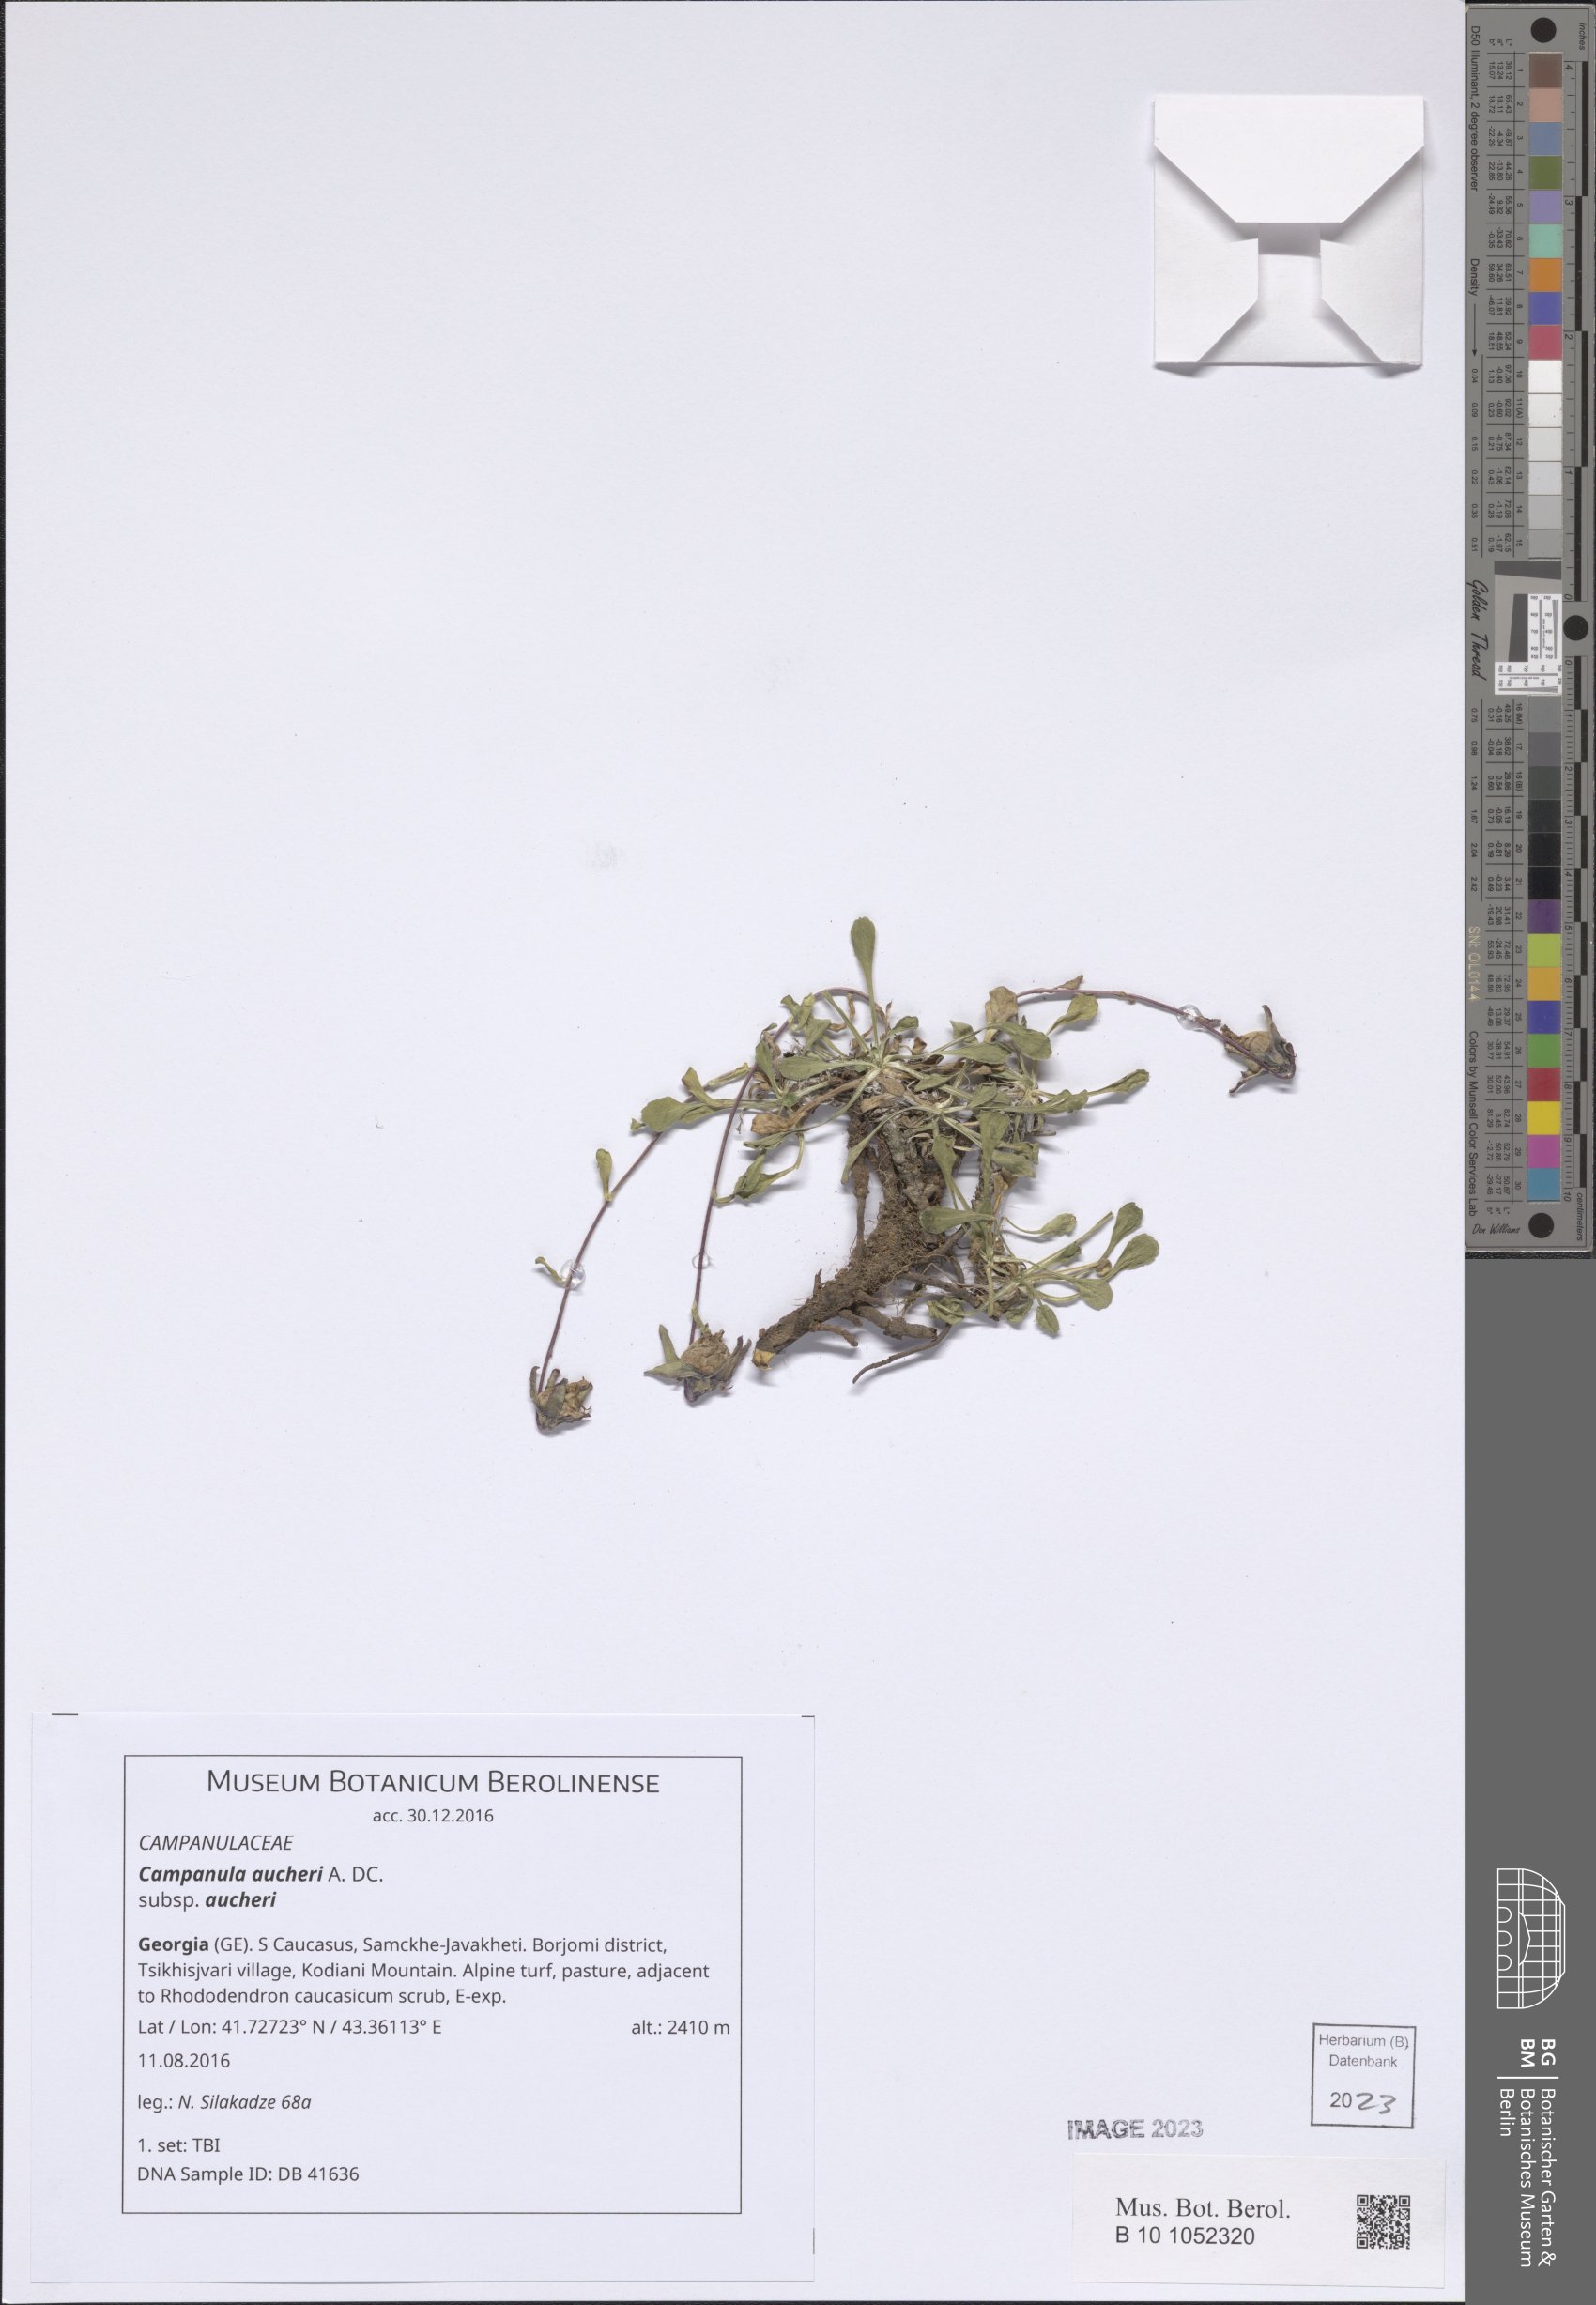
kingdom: Plantae
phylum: Tracheophyta
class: Magnoliopsida
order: Asterales
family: Campanulaceae
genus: Campanula
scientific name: Campanula saxifraga
